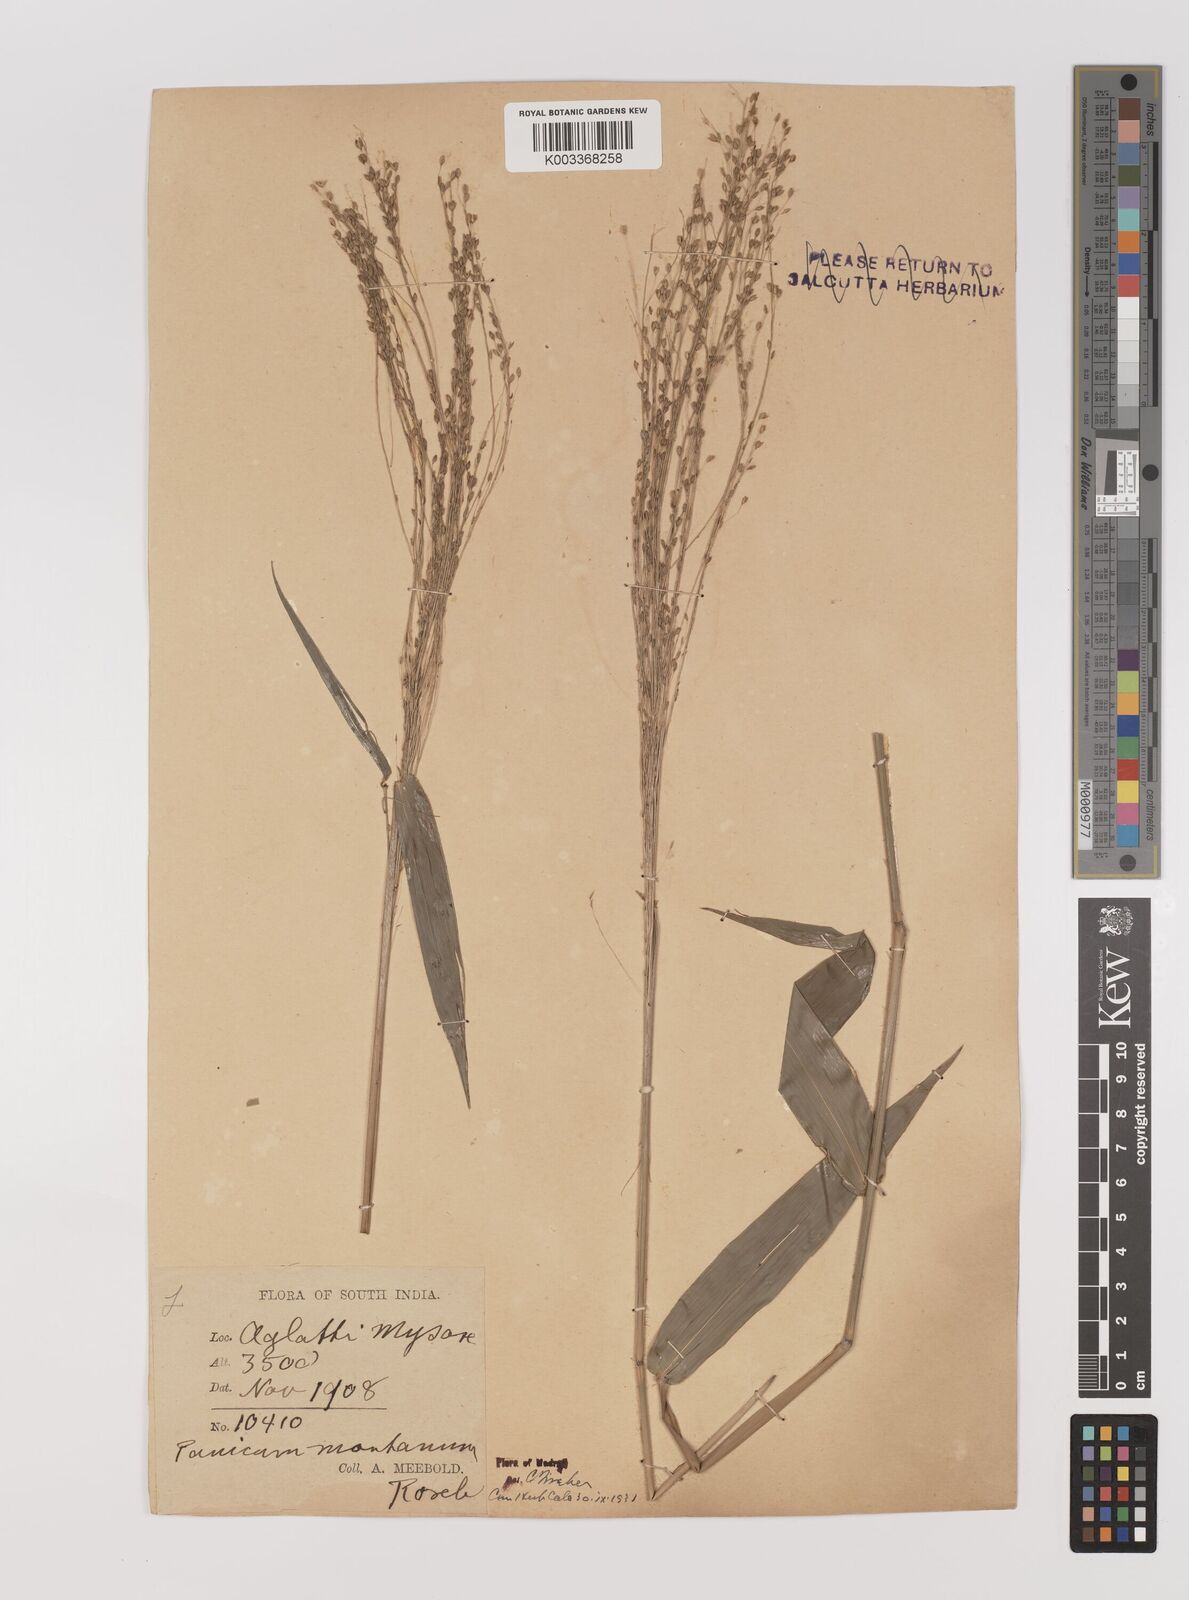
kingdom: Plantae
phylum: Tracheophyta
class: Liliopsida
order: Poales
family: Poaceae
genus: Panicum
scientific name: Panicum notatum
